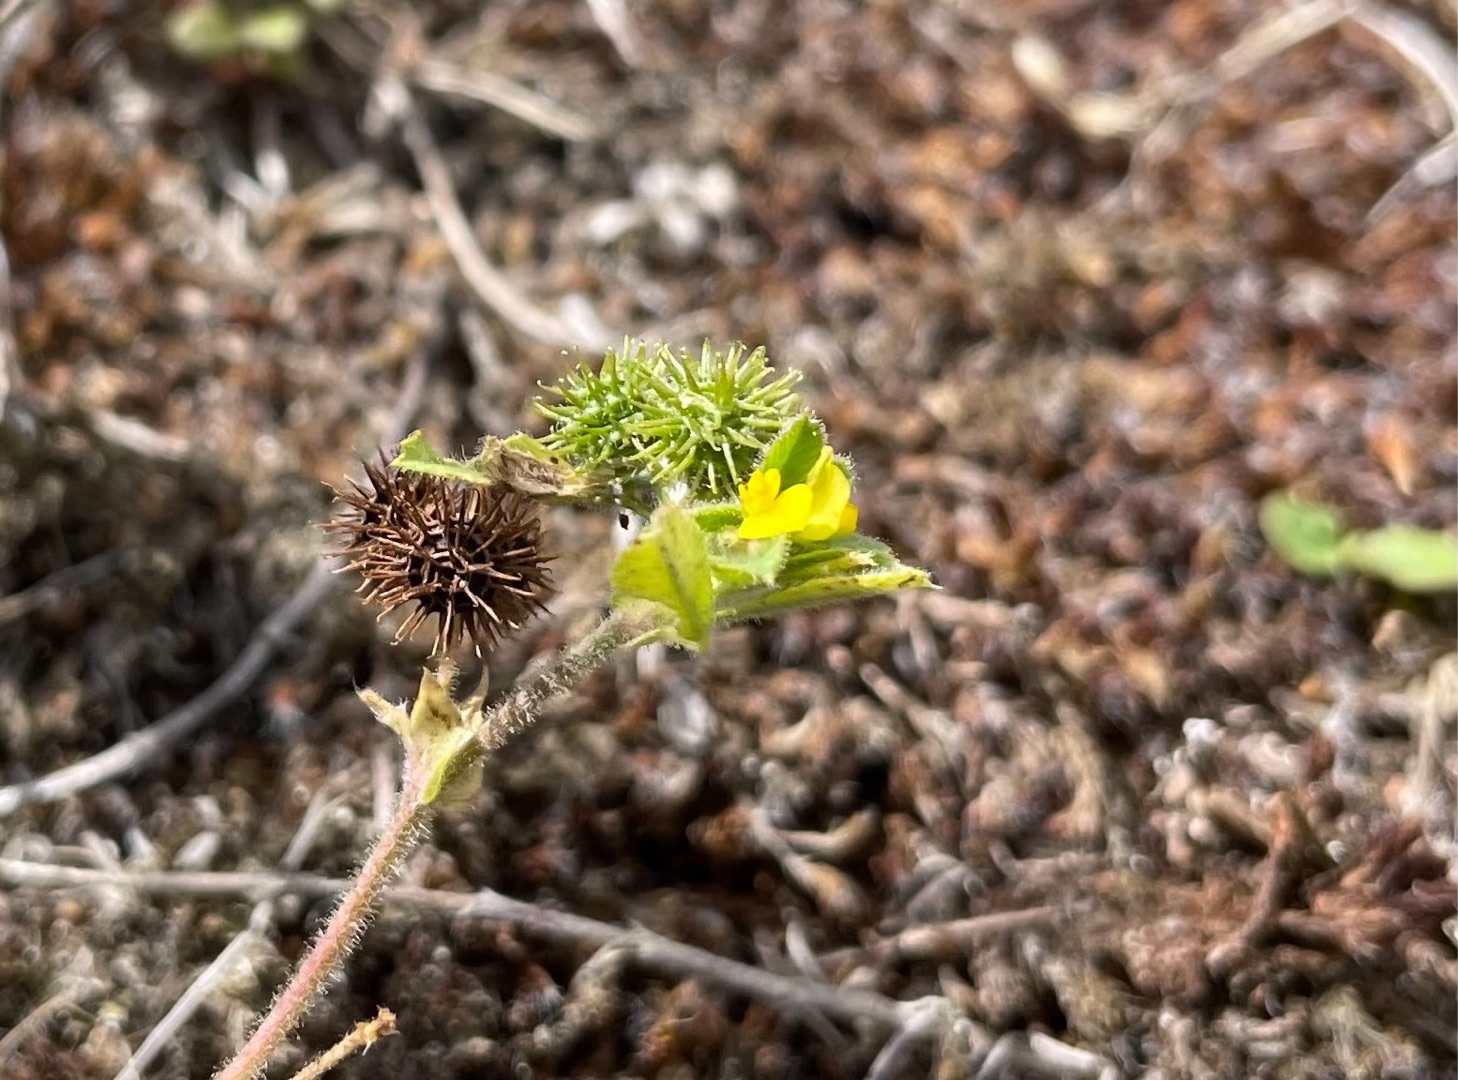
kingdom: Plantae
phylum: Tracheophyta
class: Magnoliopsida
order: Fabales
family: Fabaceae
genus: Medicago
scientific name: Medicago minima
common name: Liden sneglebælg
